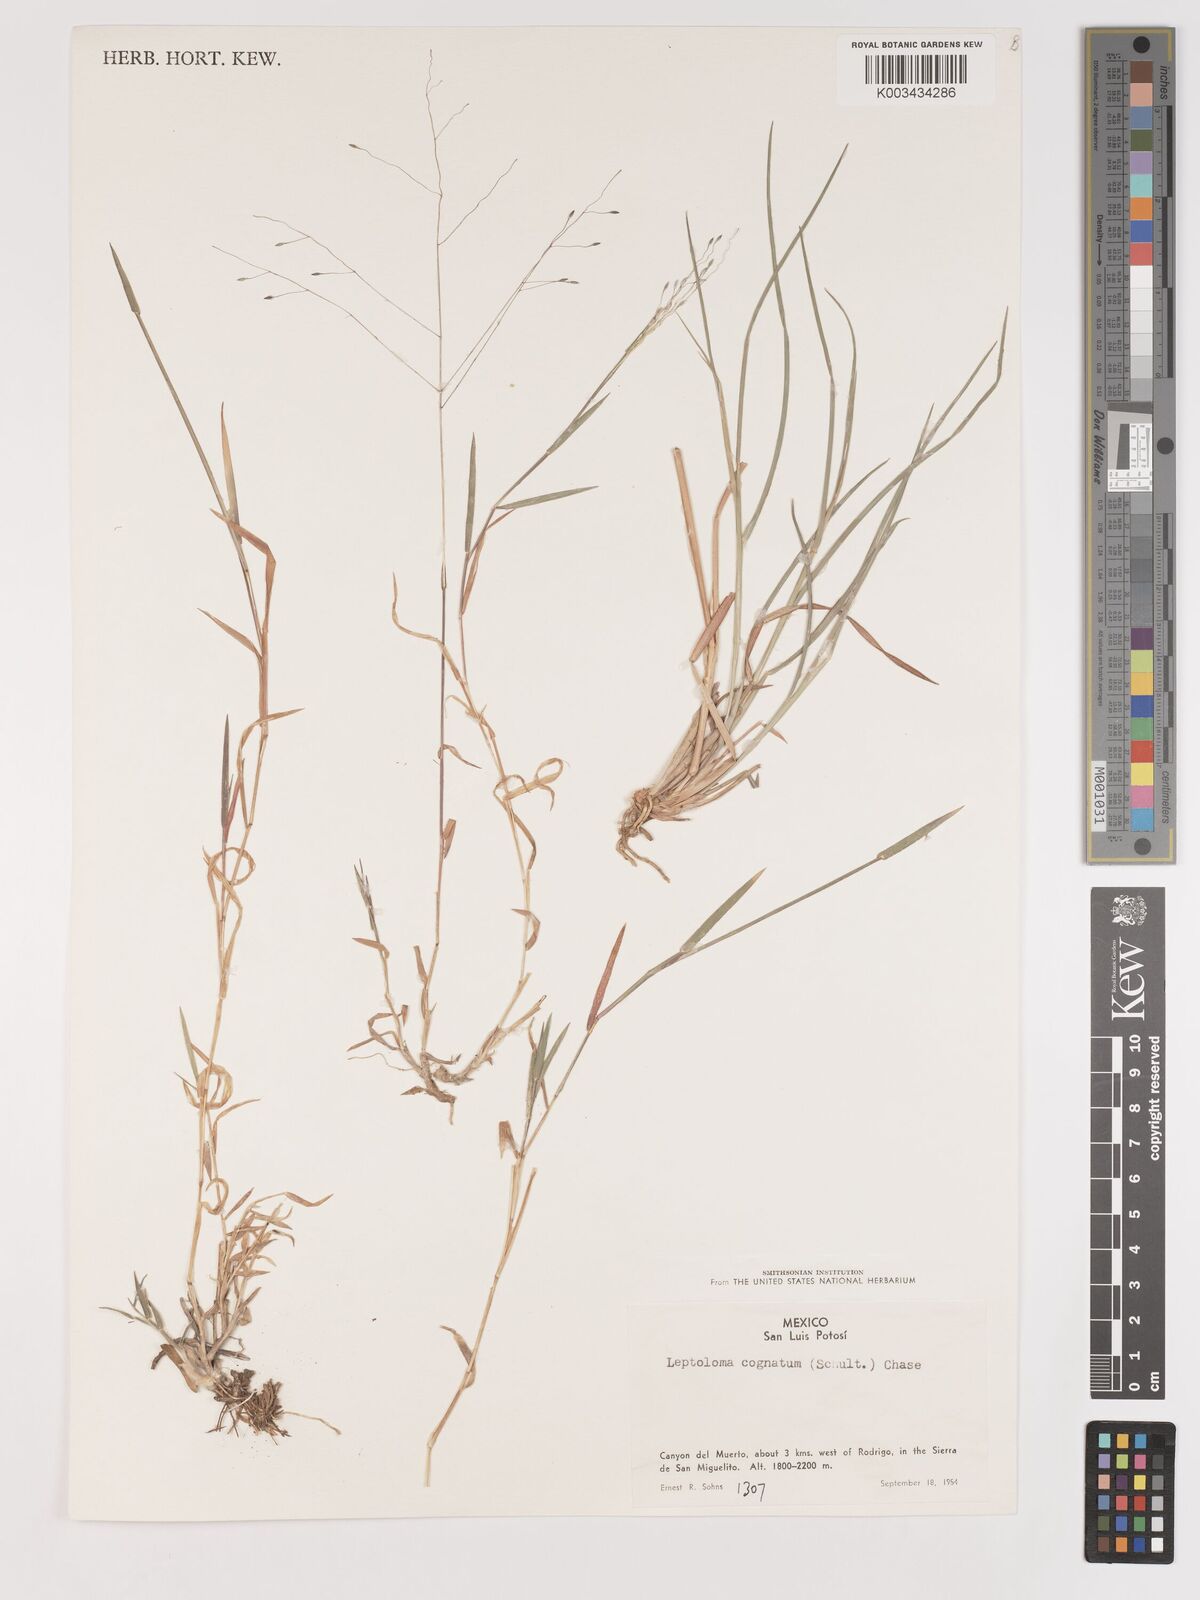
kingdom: Plantae
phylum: Tracheophyta
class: Liliopsida
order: Poales
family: Poaceae
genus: Digitaria
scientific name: Digitaria cognata
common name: Fall witchgrass
